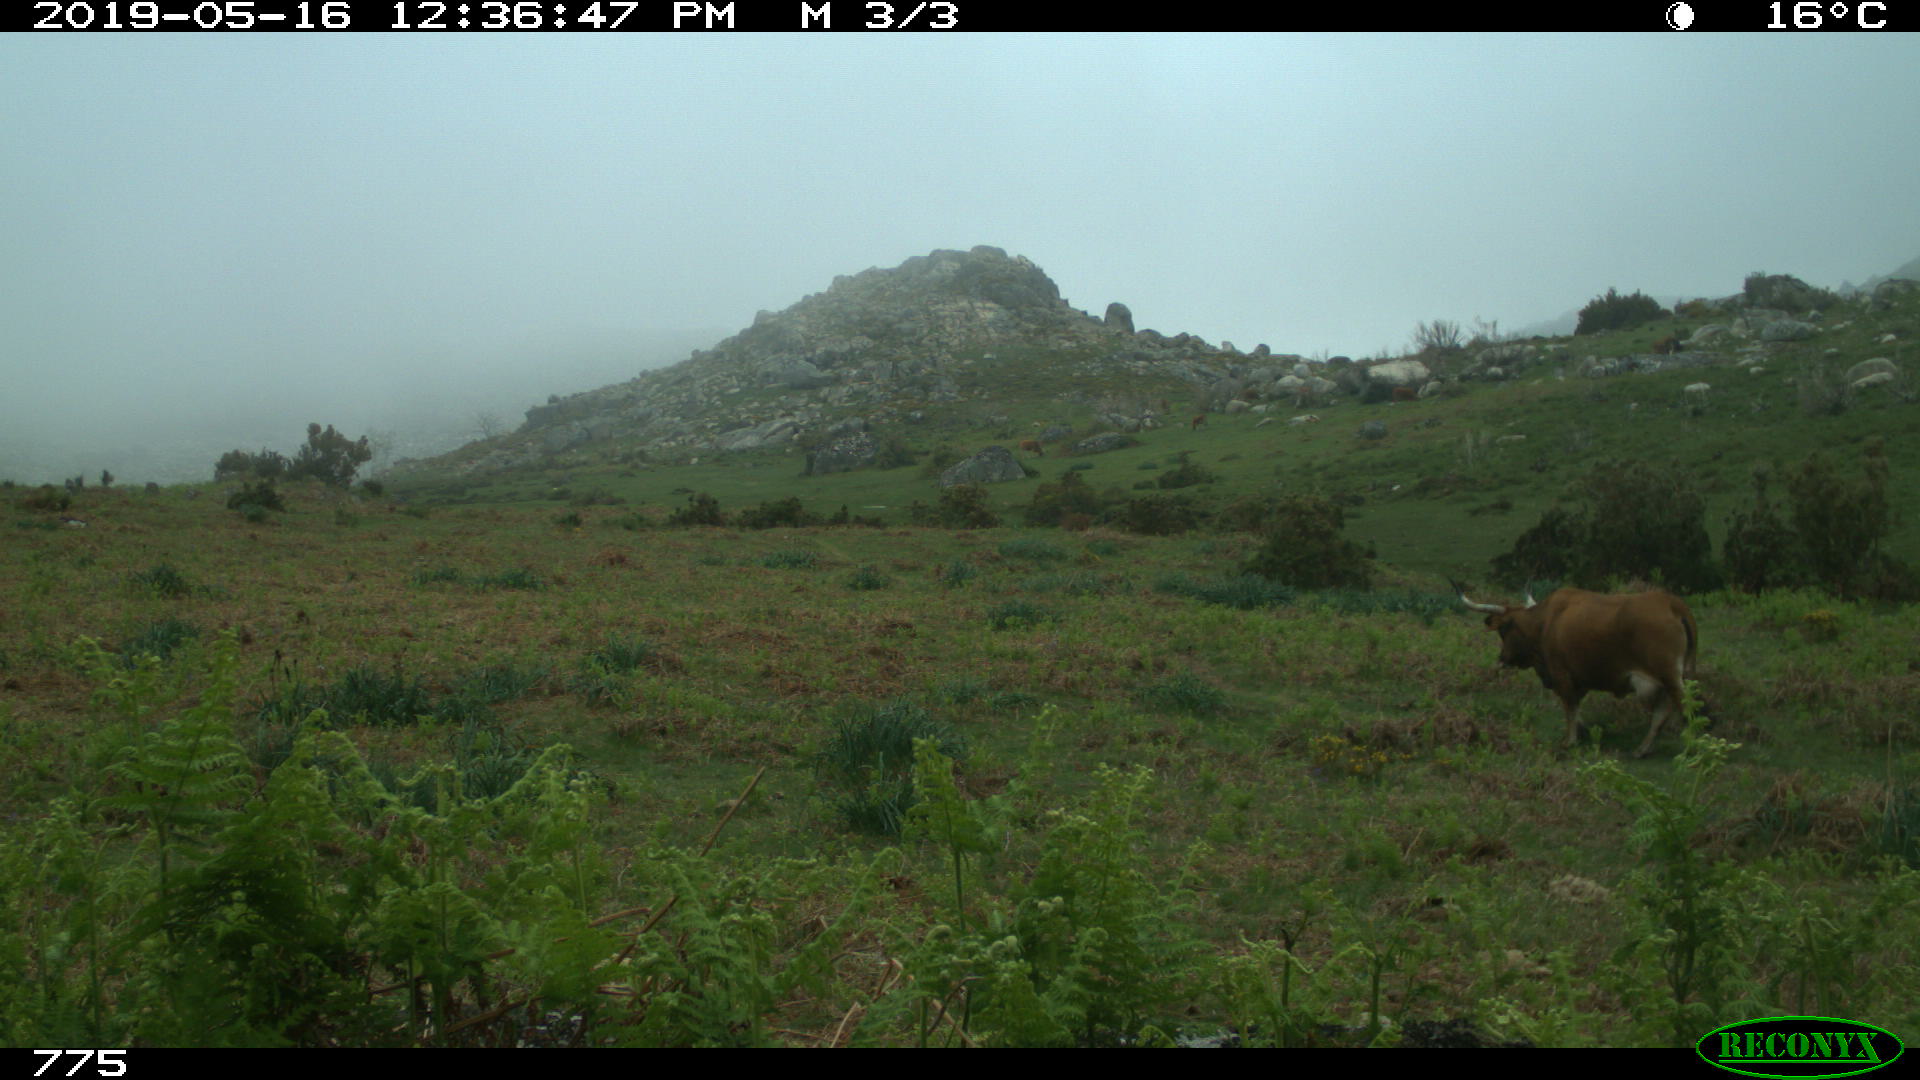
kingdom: Animalia
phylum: Chordata
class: Mammalia
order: Artiodactyla
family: Bovidae
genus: Bos
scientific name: Bos taurus
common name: Domesticated cattle
